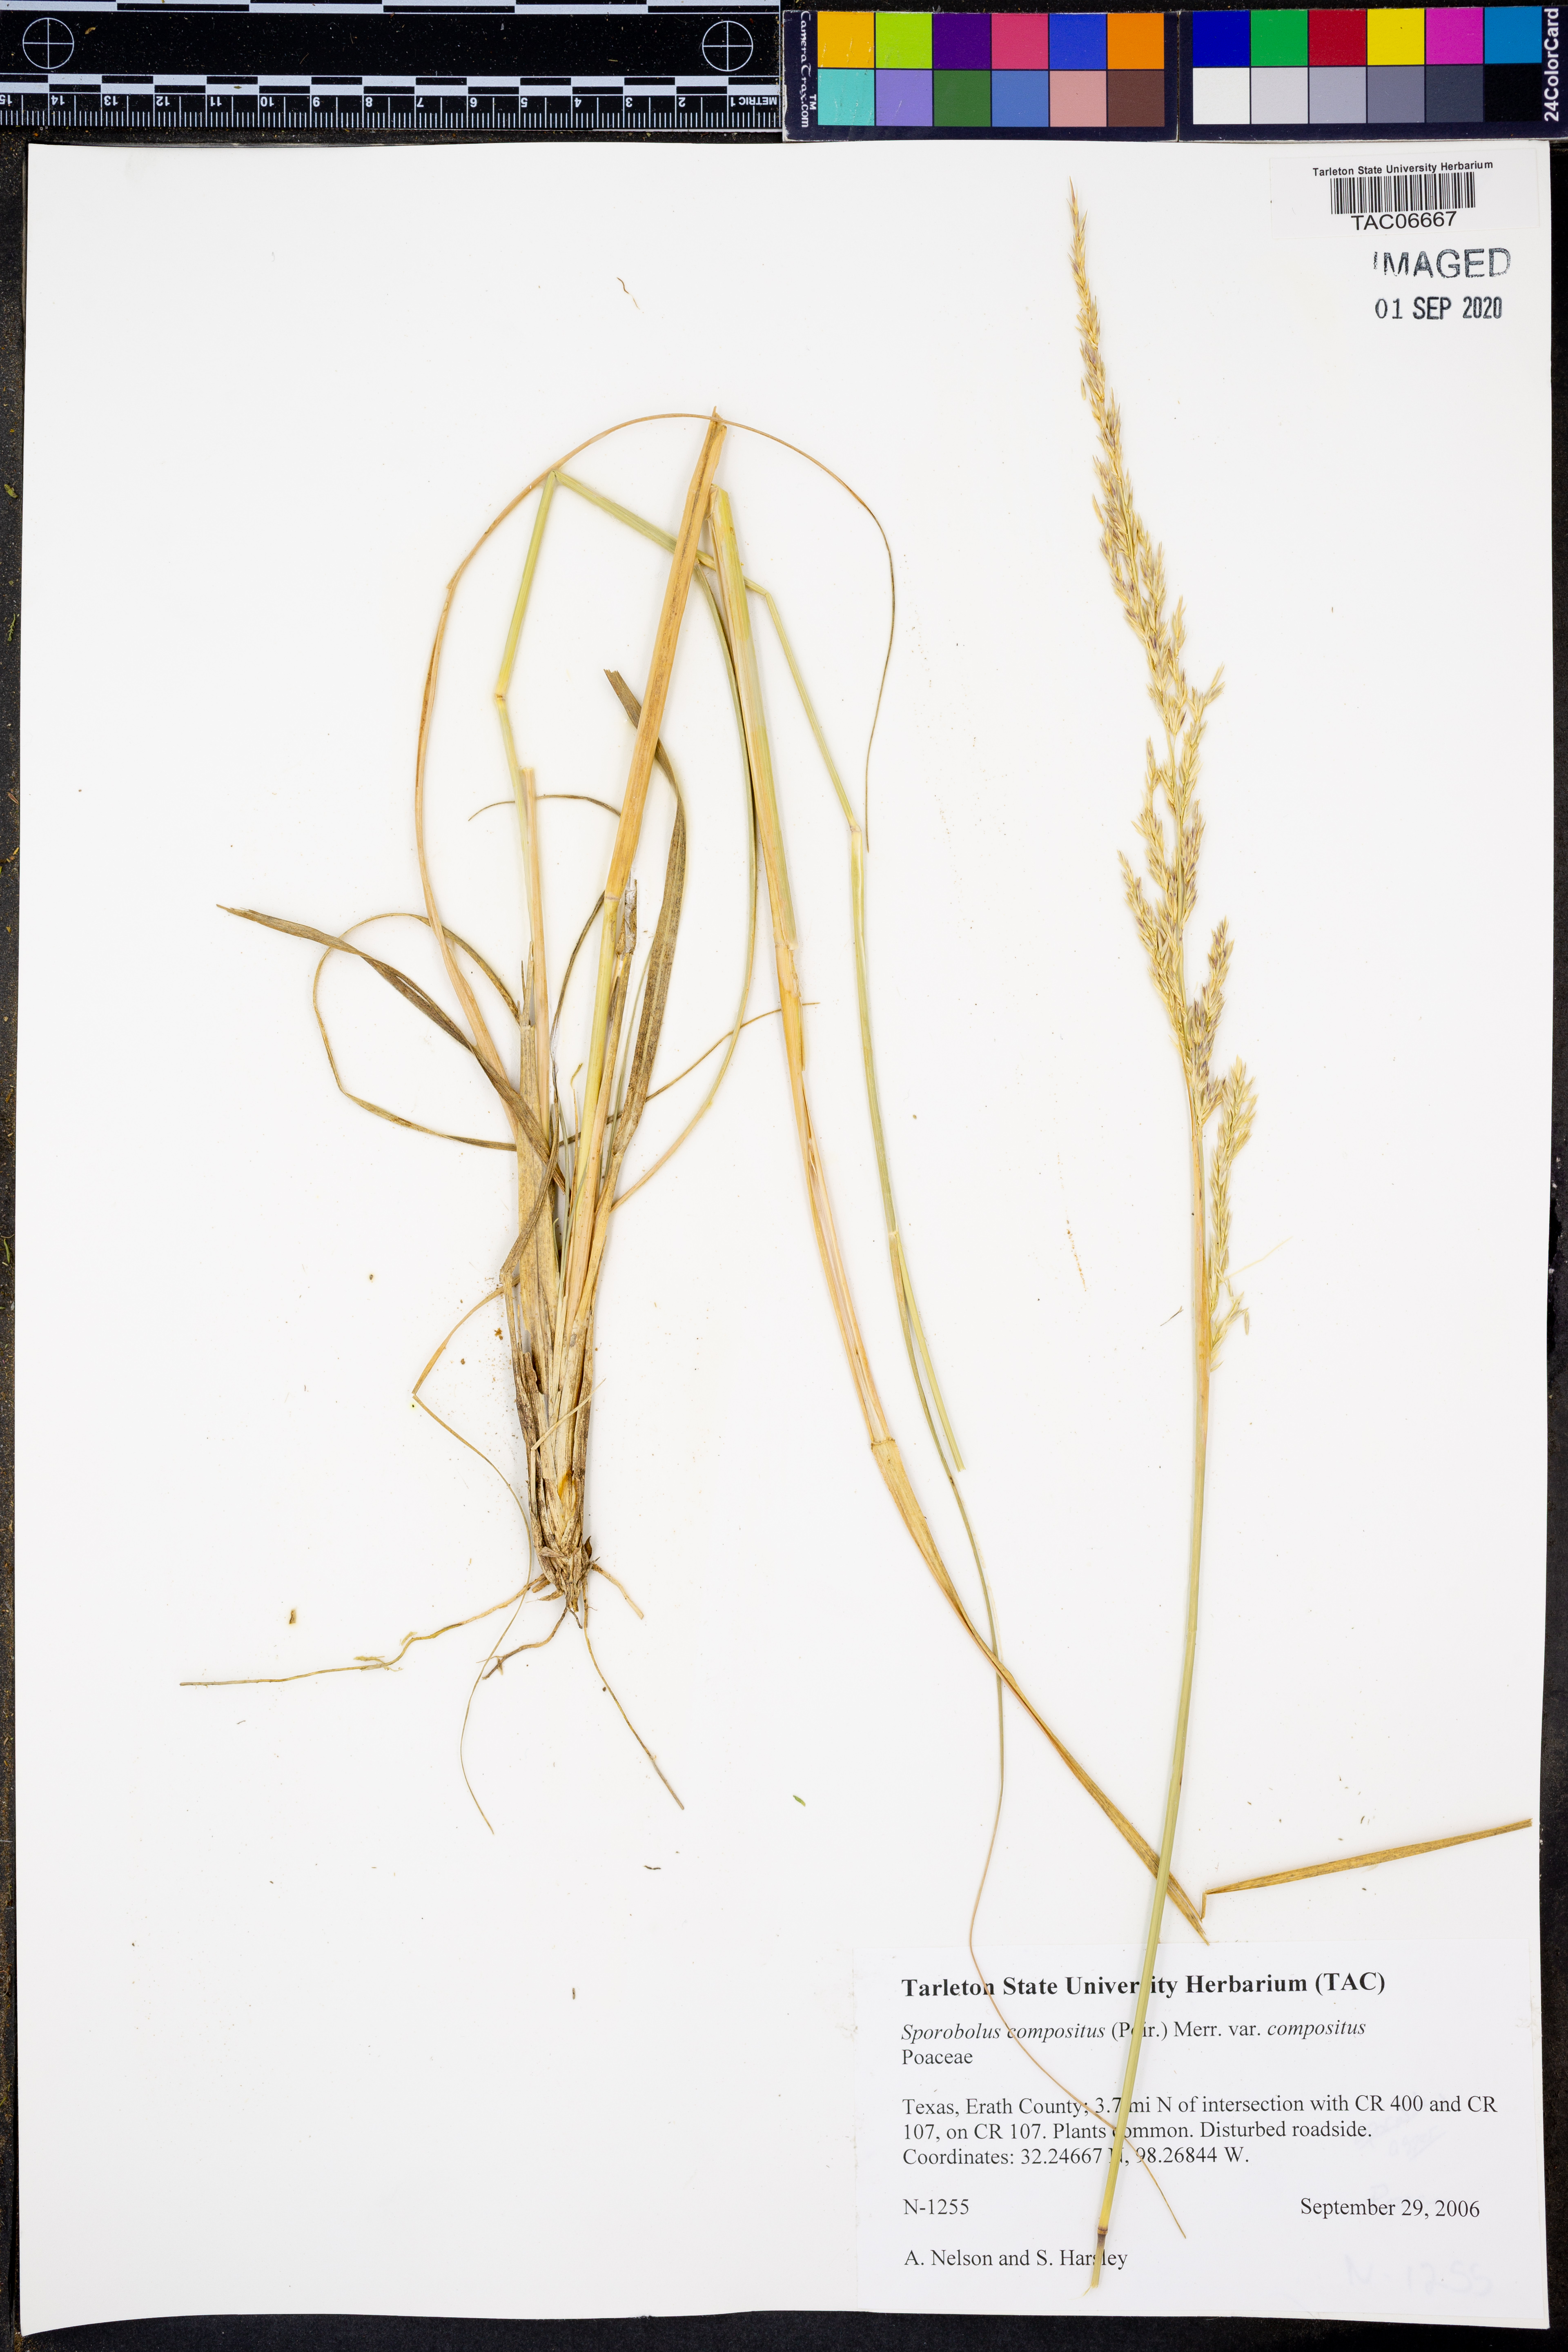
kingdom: Plantae
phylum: Tracheophyta
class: Liliopsida
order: Poales
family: Poaceae
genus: Sporobolus
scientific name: Sporobolus compositus
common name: Rough dropseed
